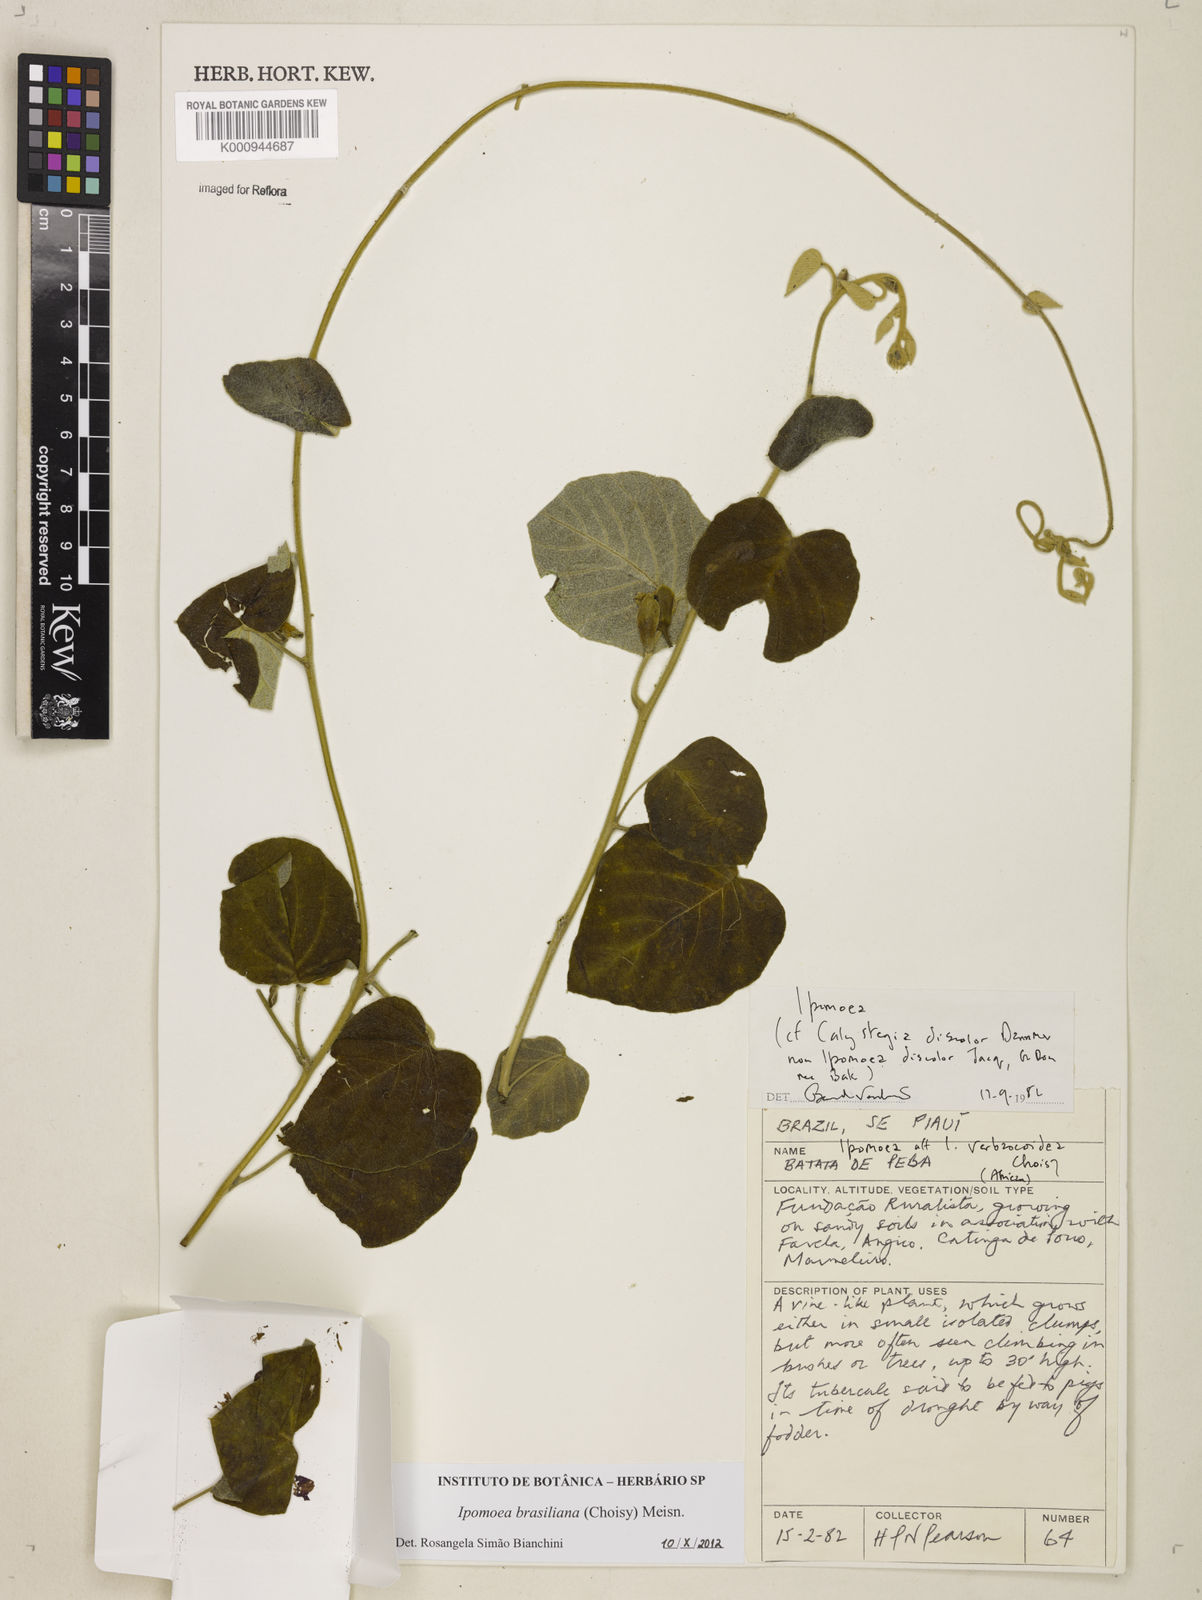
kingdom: Plantae
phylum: Tracheophyta
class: Magnoliopsida
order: Solanales
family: Convolvulaceae
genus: Ipomoea
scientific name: Ipomoea brasiliana
